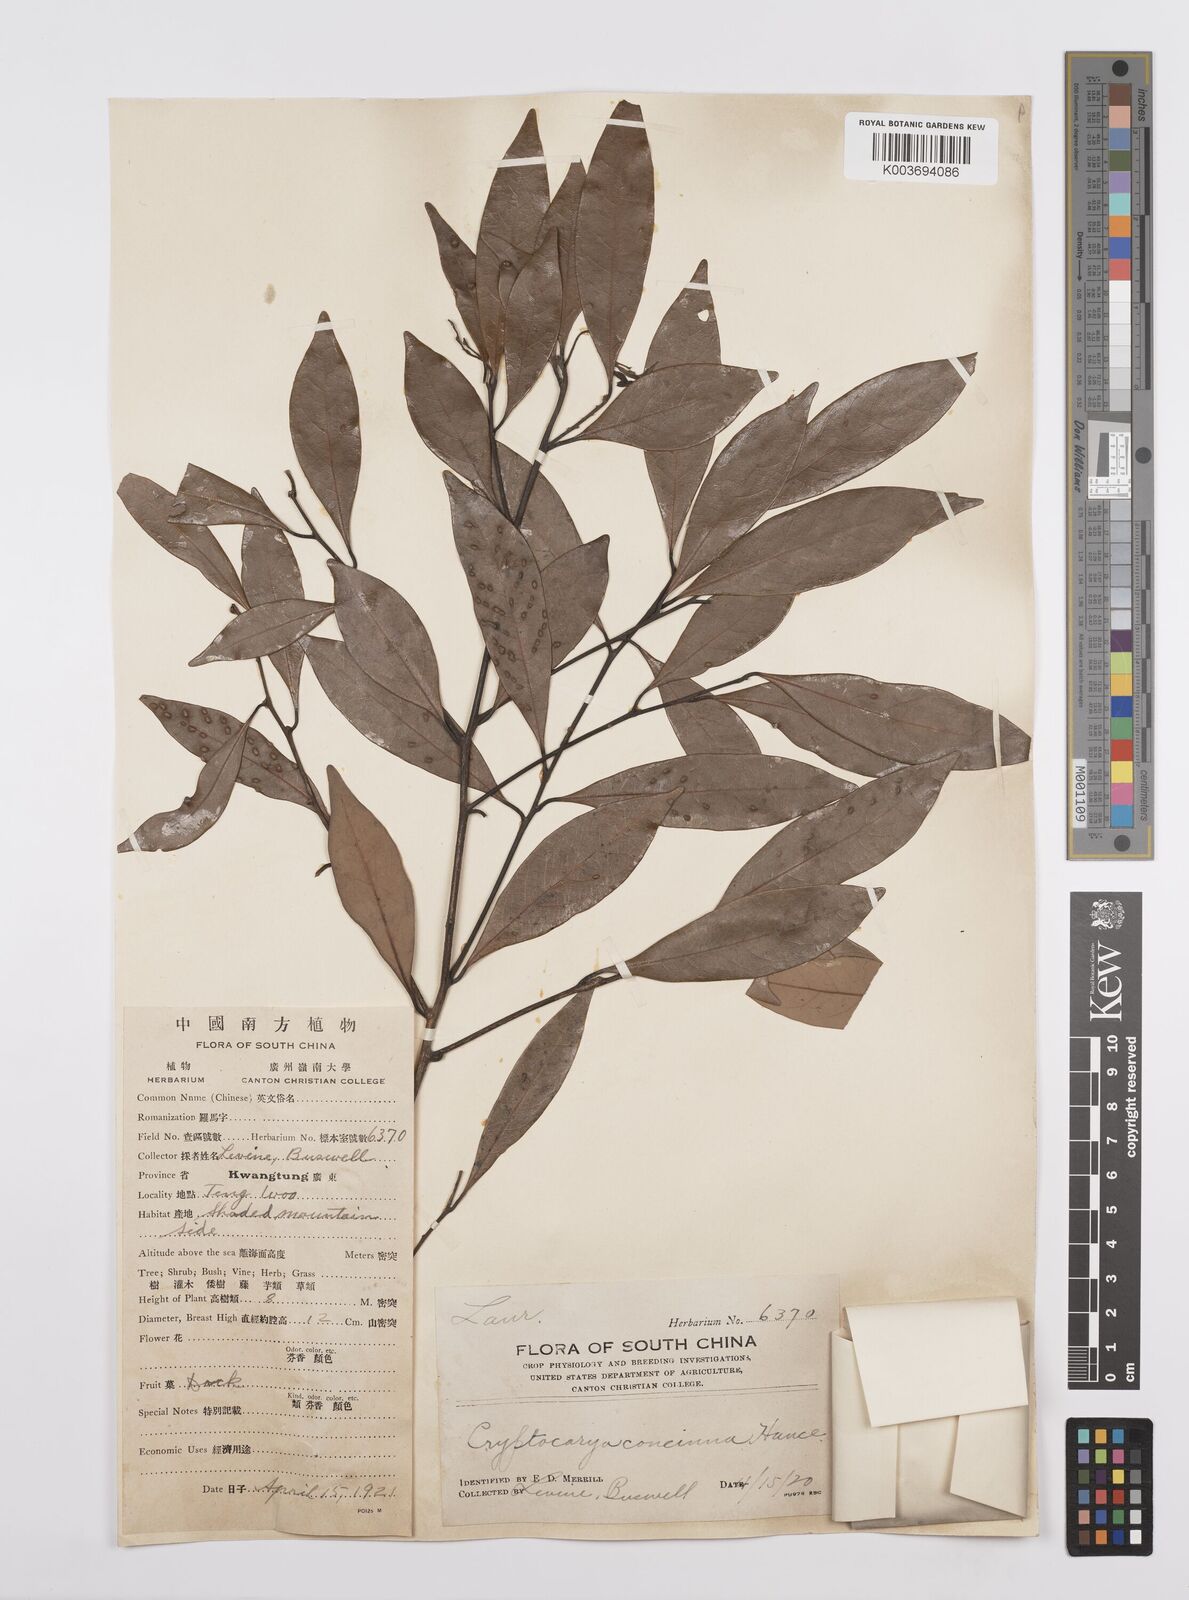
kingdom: Plantae
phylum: Tracheophyta
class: Magnoliopsida
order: Laurales
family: Lauraceae
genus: Cryptocarya
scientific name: Cryptocarya concinna
